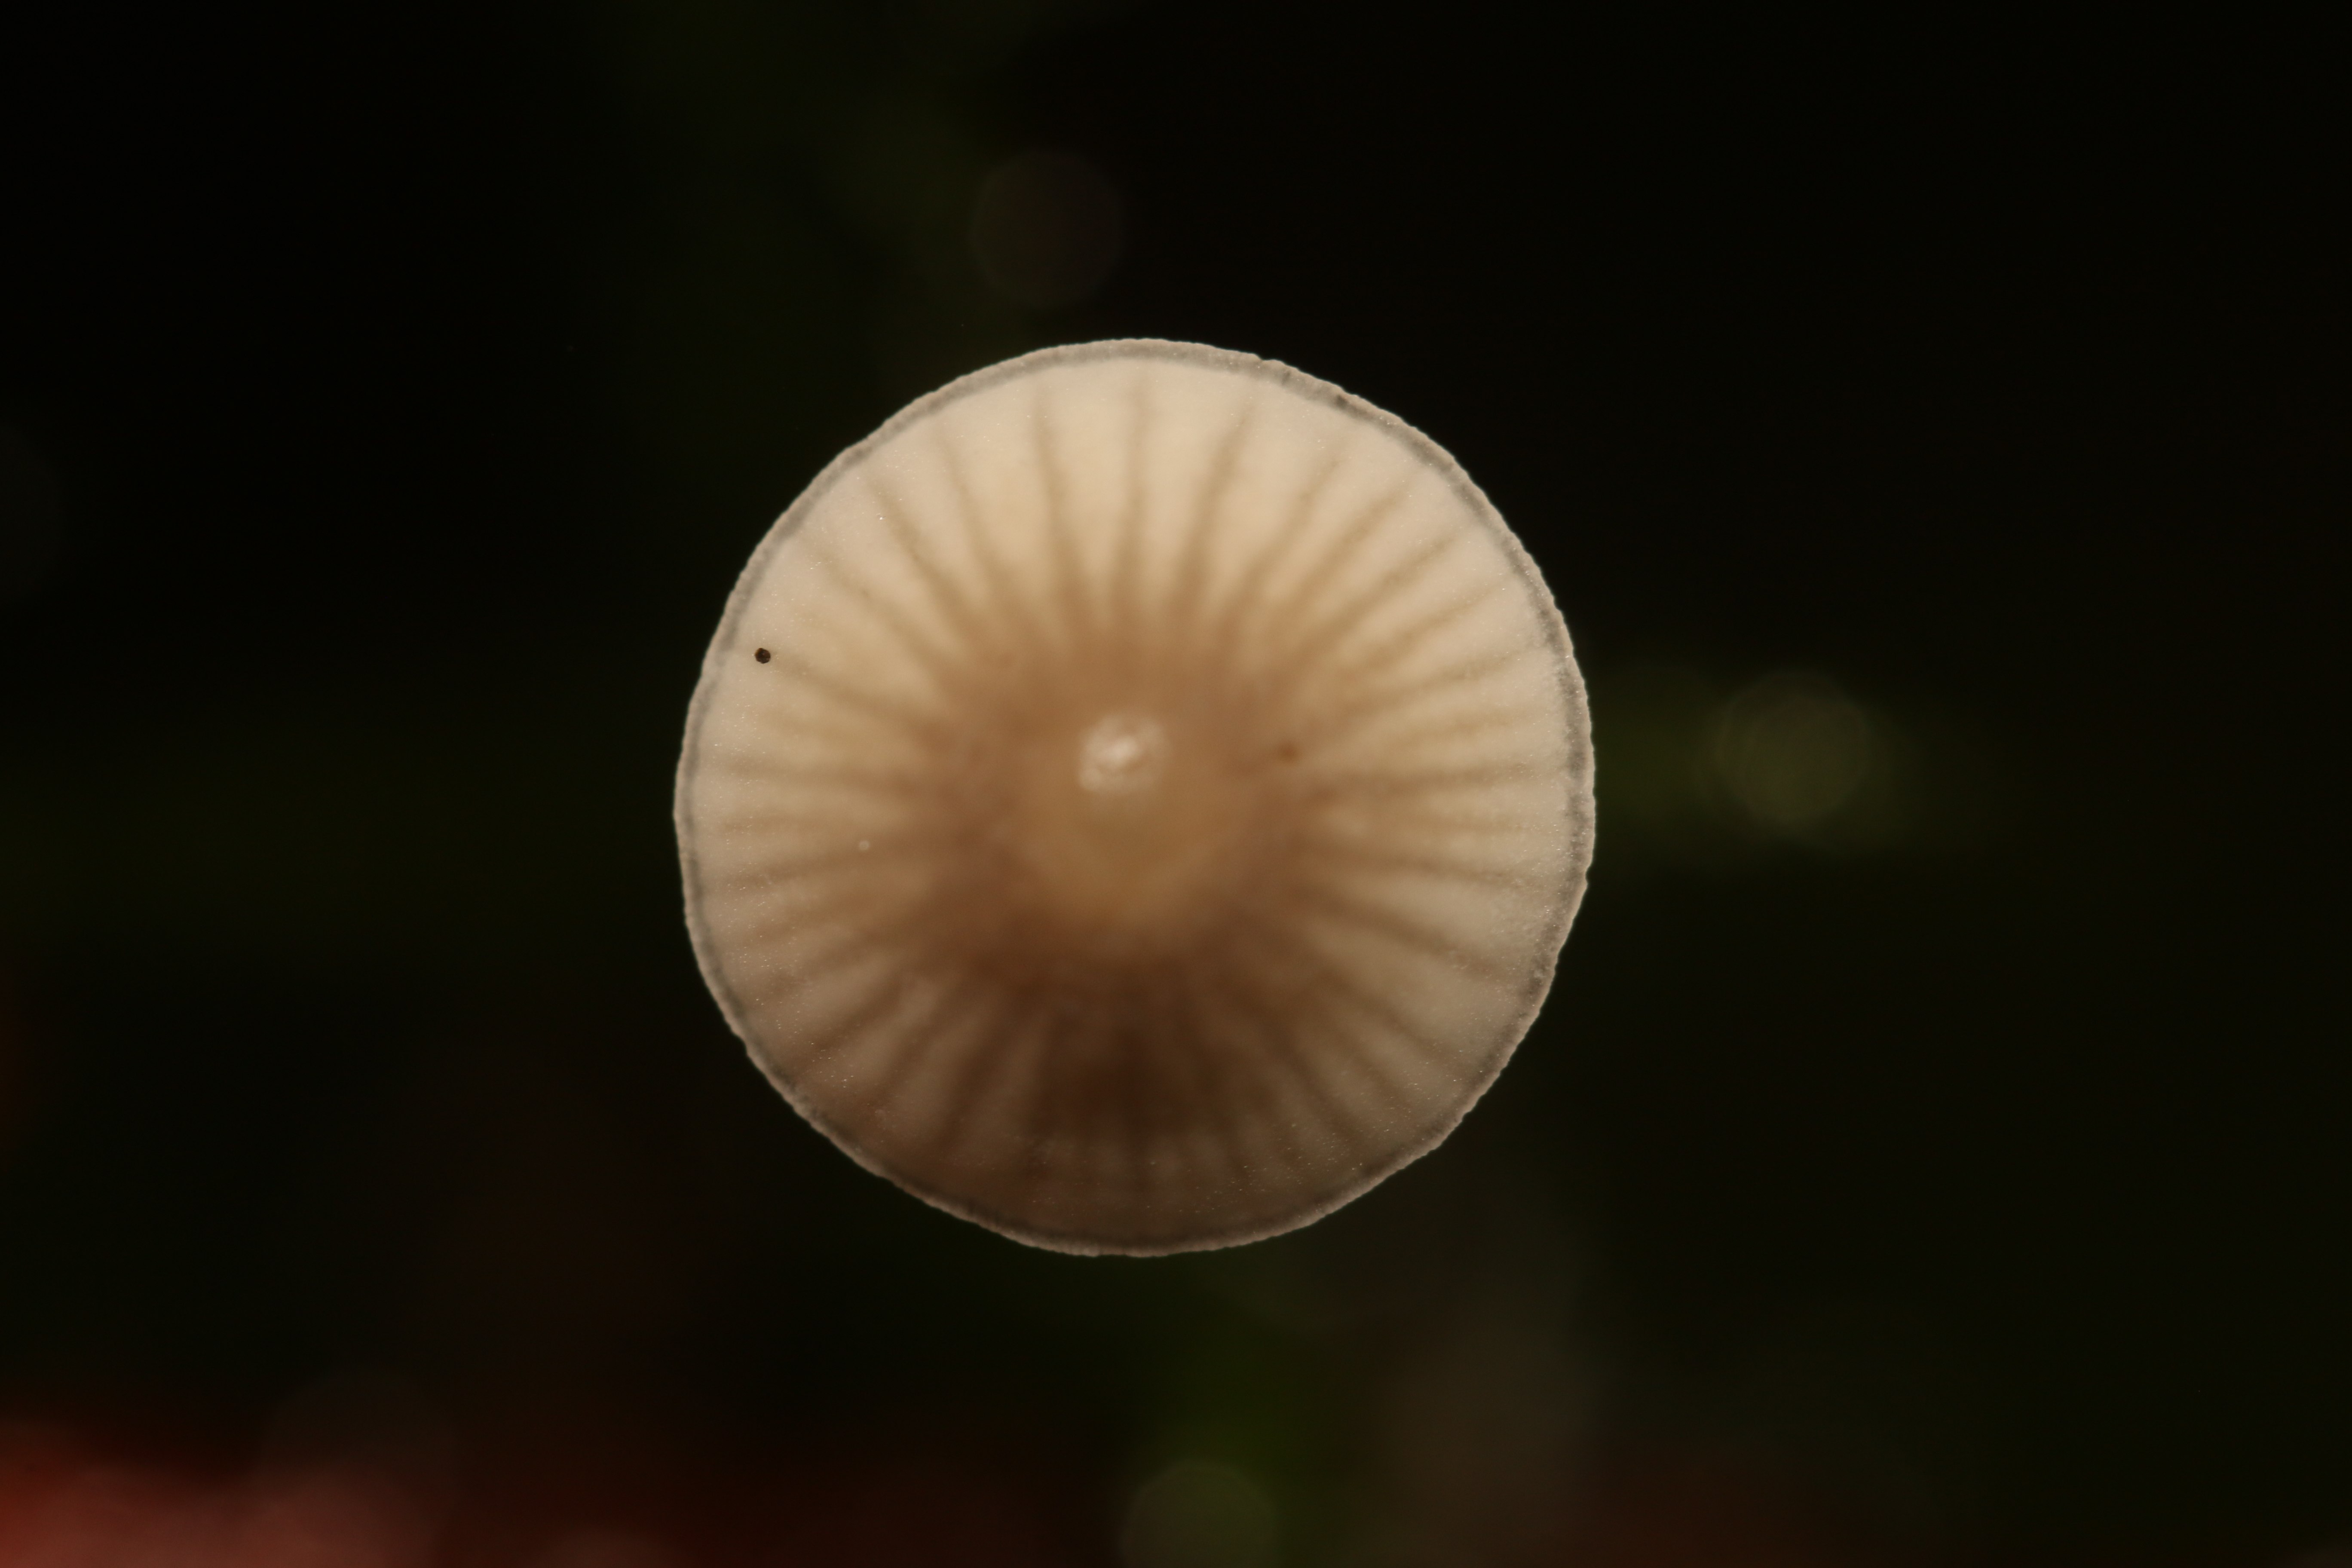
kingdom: Fungi
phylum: Basidiomycota
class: Agaricomycetes
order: Agaricales
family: Mycenaceae
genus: Mycena
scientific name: Mycena filopes
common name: jod-huesvamp
